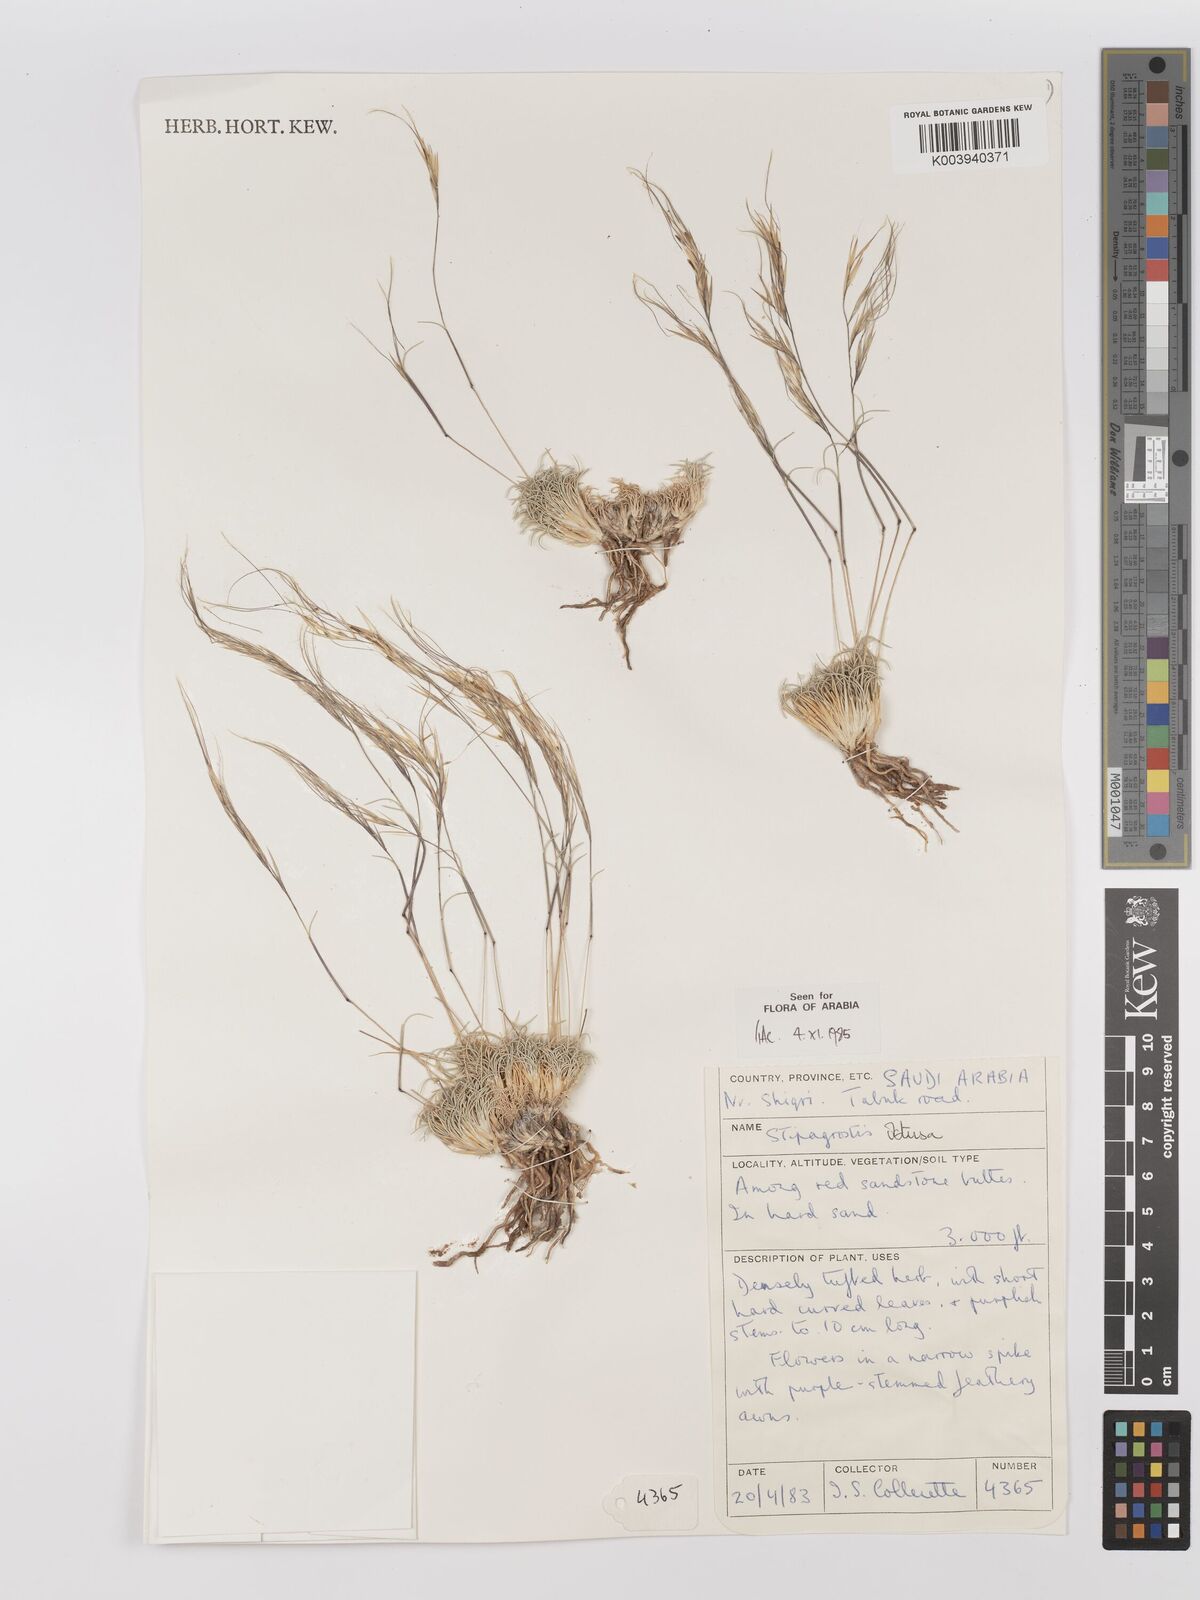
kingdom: Plantae
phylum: Tracheophyta
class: Liliopsida
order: Poales
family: Poaceae
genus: Stipagrostis
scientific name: Stipagrostis obtusa
